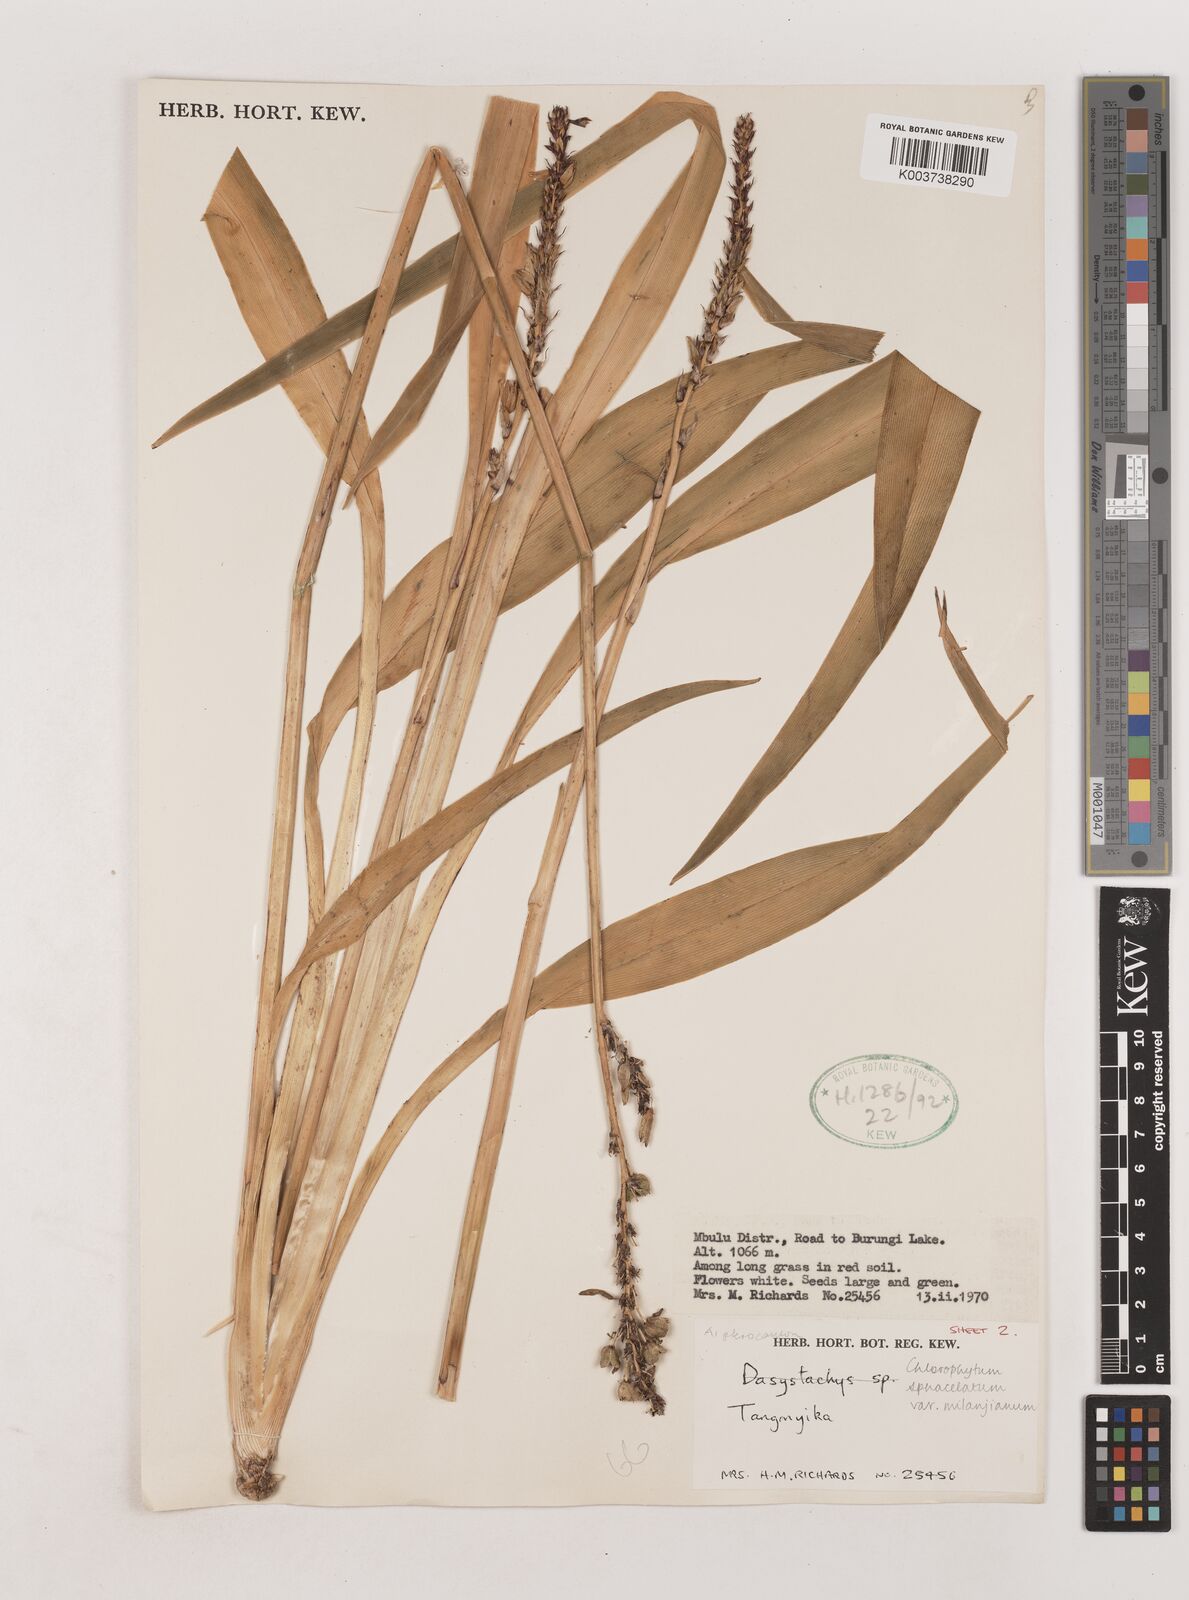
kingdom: Plantae
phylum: Tracheophyta
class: Liliopsida
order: Asparagales
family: Asparagaceae
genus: Chlorophytum
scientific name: Chlorophytum sphacelatum
